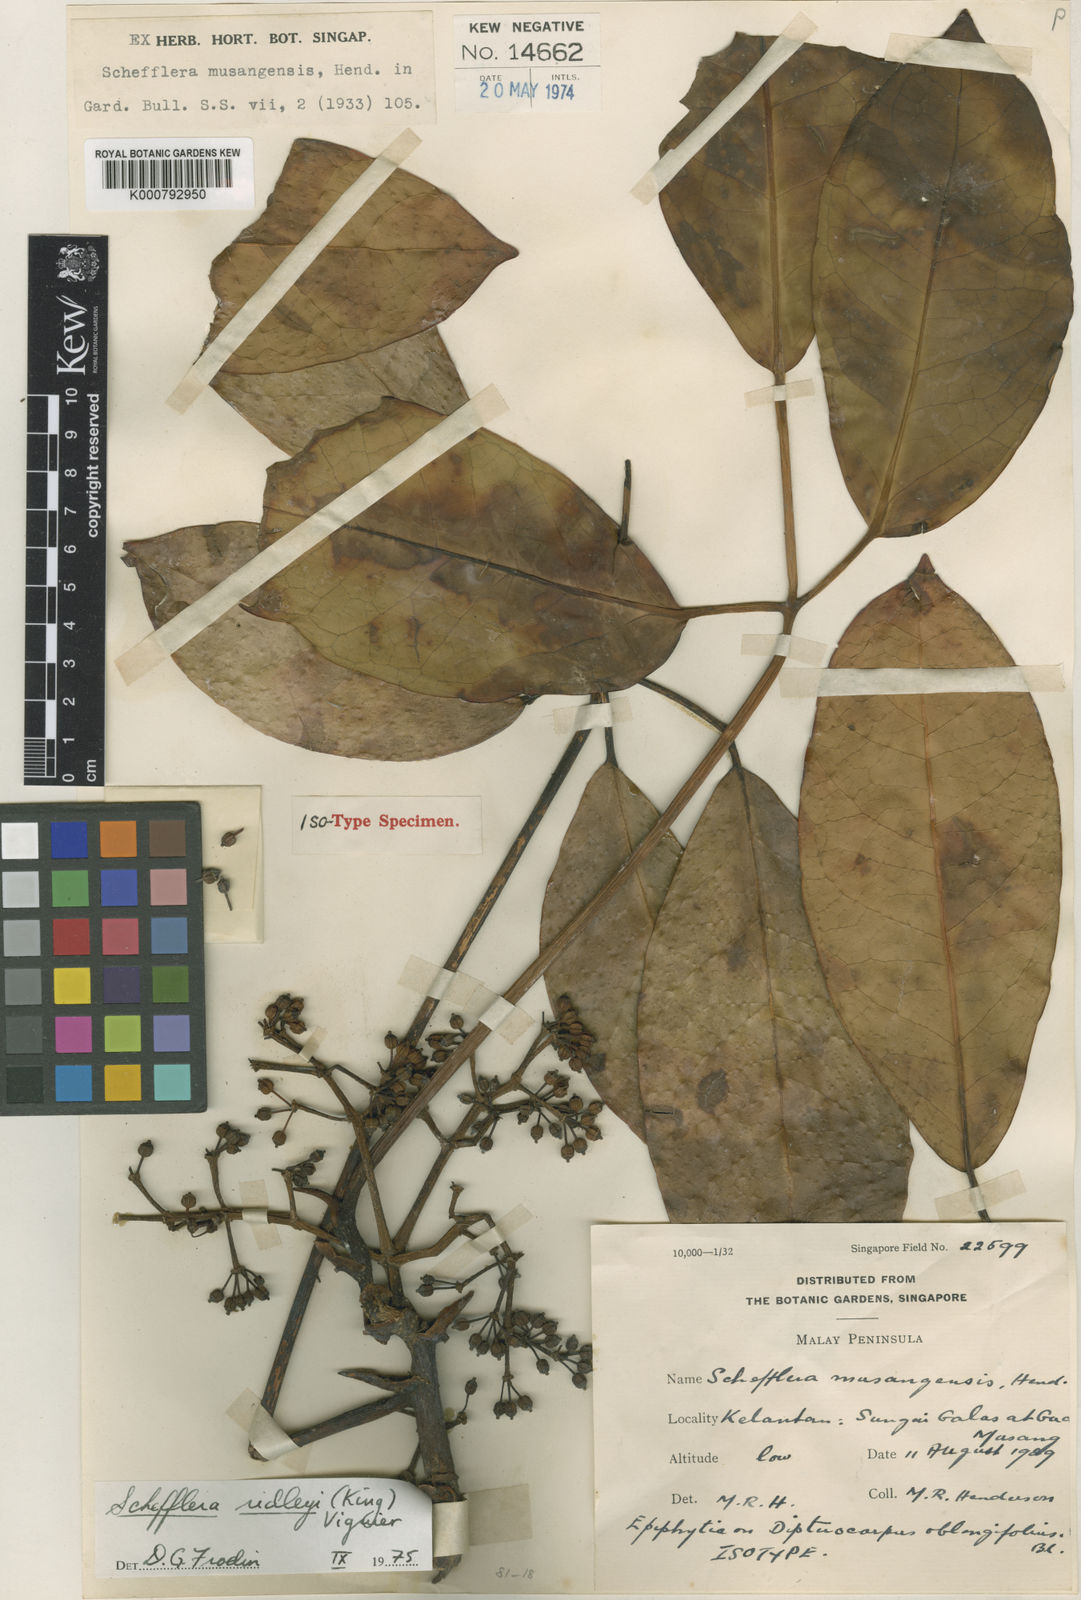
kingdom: Plantae
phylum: Tracheophyta
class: Magnoliopsida
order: Apiales
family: Araliaceae
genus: Heptapleurum
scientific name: Heptapleurum ridleyi
